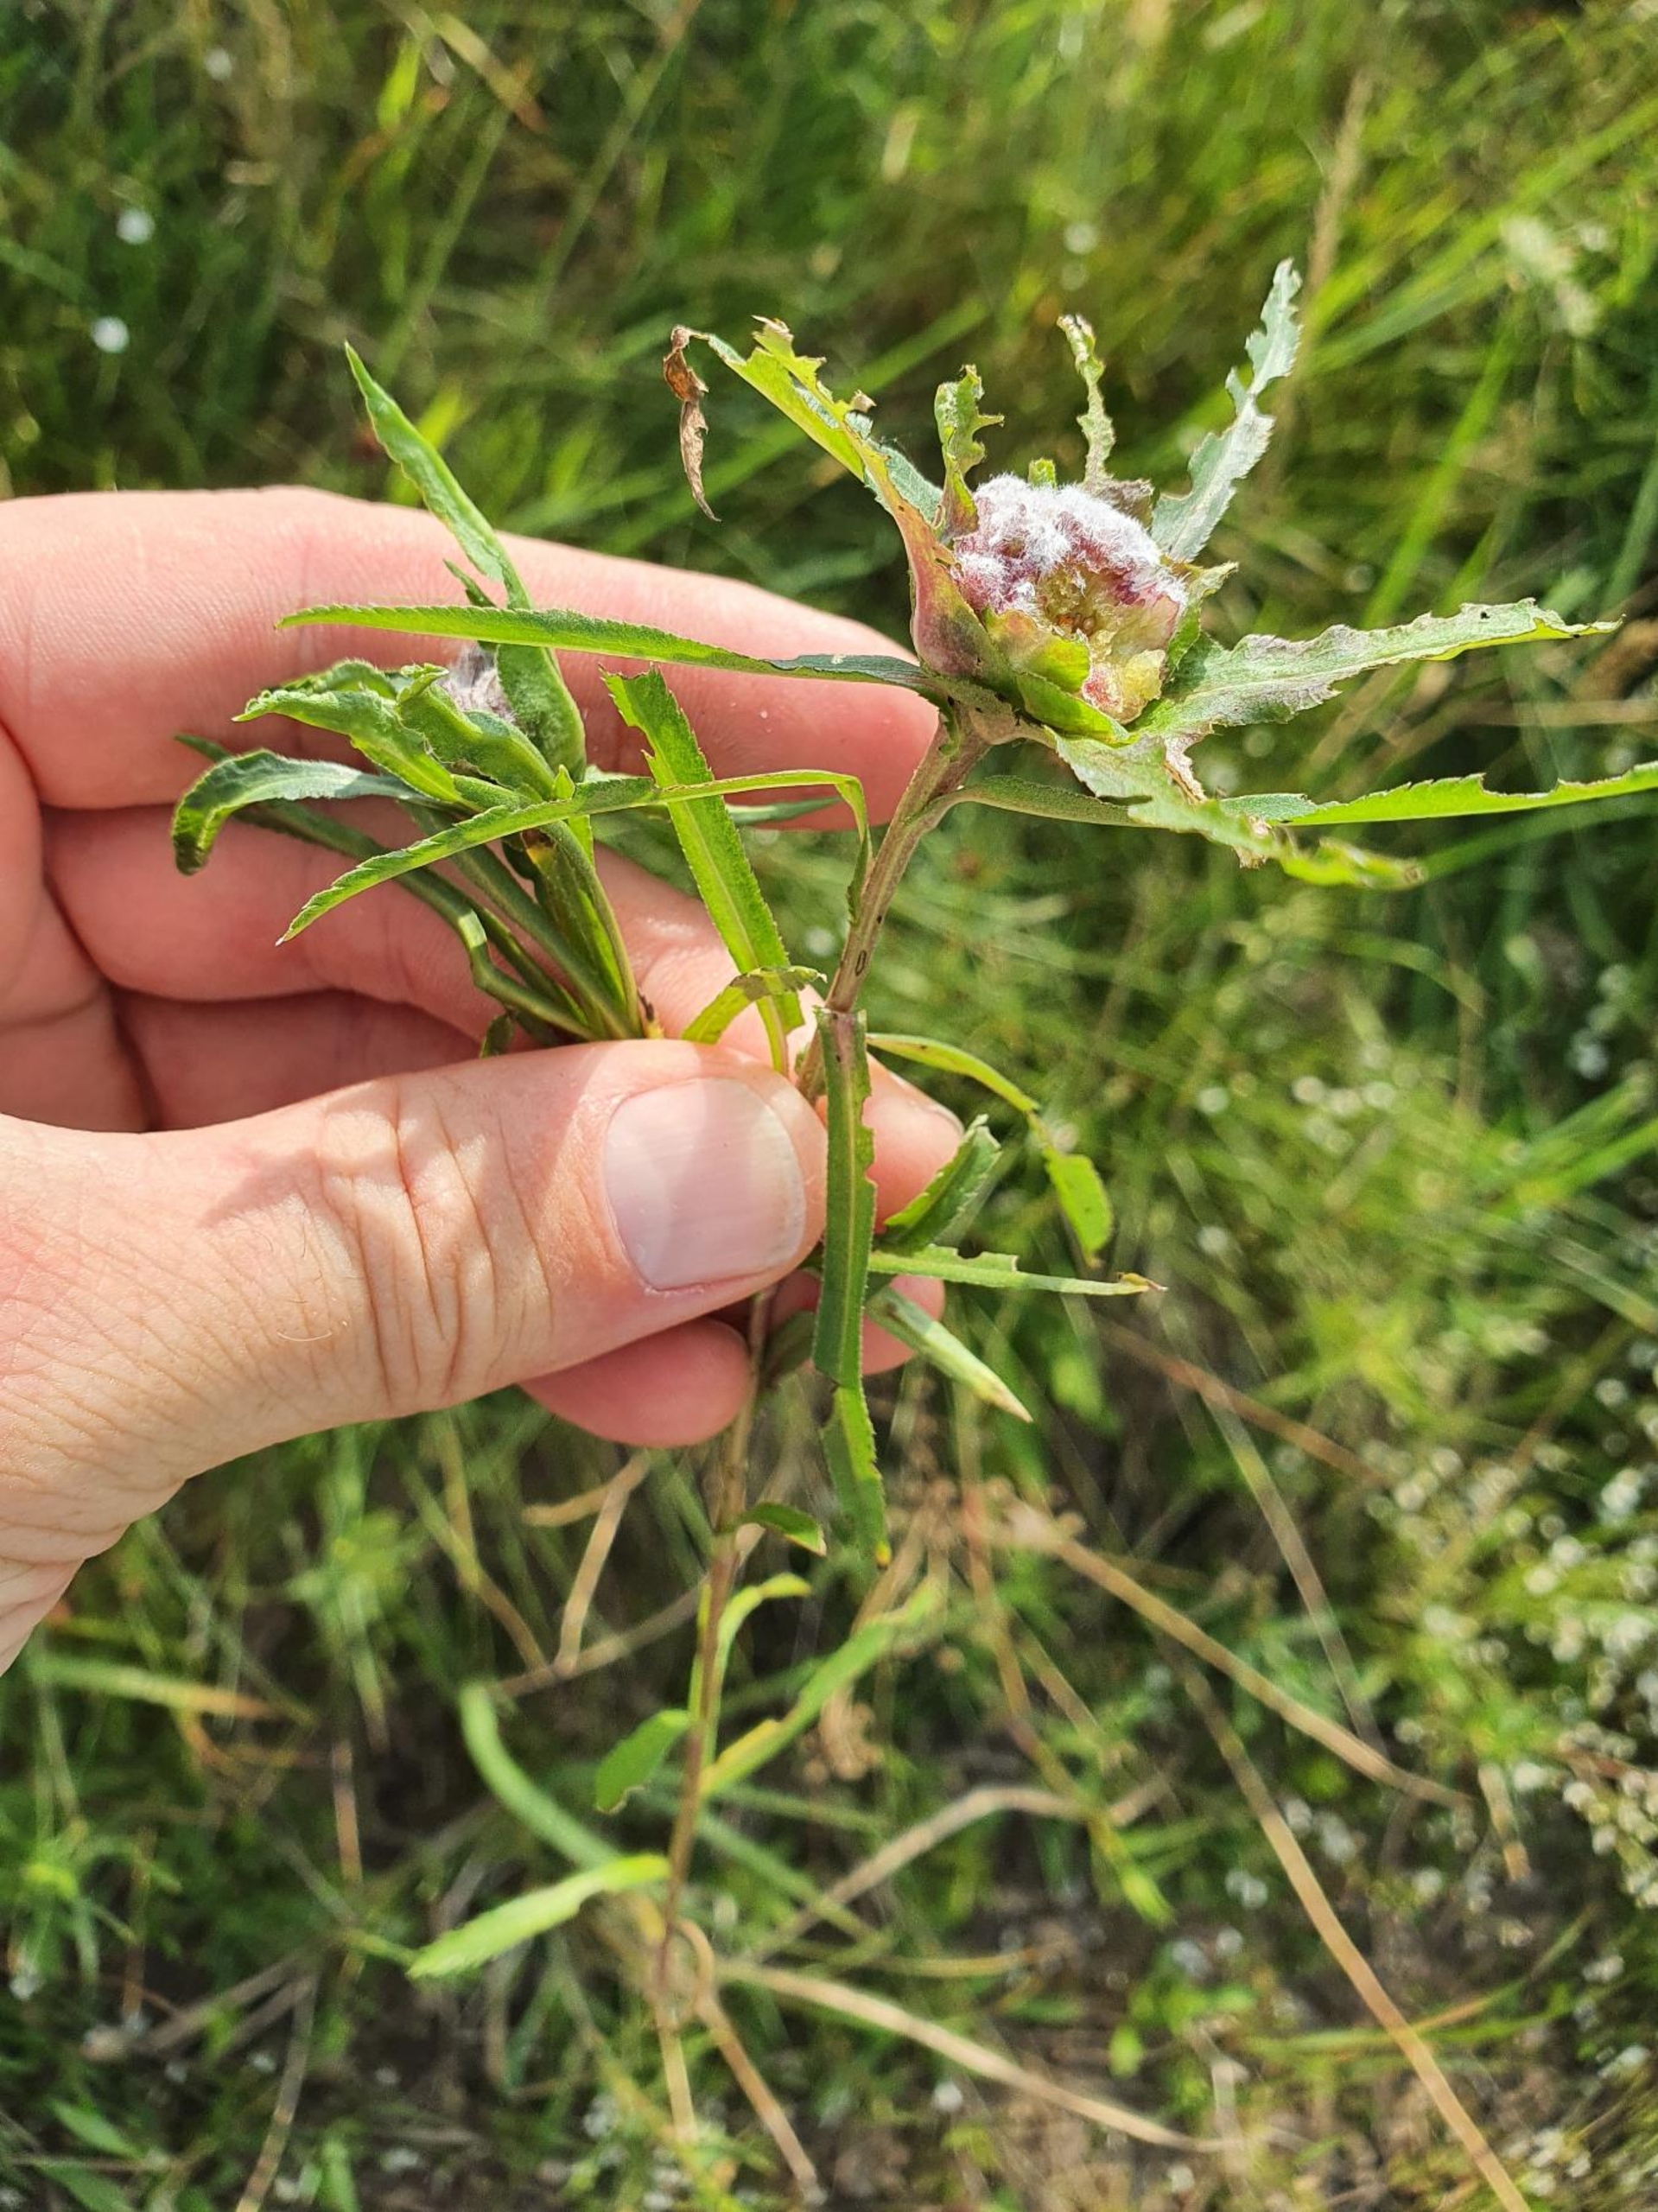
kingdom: Animalia
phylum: Arthropoda
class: Insecta
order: Diptera
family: Cecidomyiidae
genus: Rhopalomyia
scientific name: Rhopalomyia ptarmicae
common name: Stor nyserøllikegalmyg
